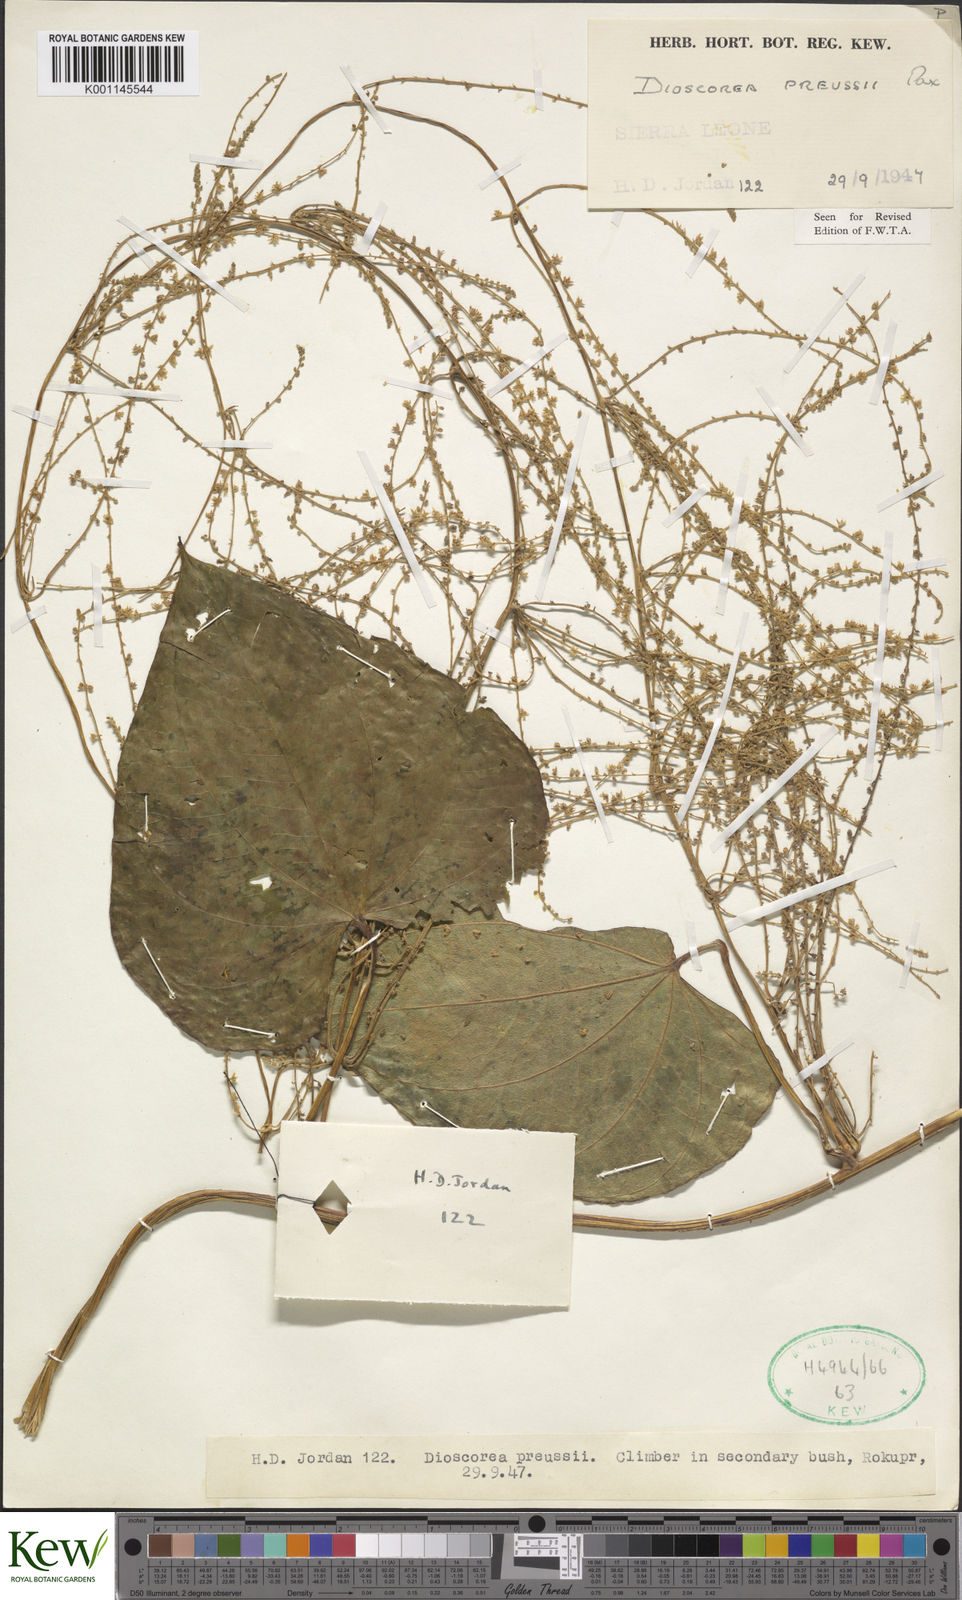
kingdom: Plantae
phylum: Tracheophyta
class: Liliopsida
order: Dioscoreales
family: Dioscoreaceae
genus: Dioscorea
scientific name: Dioscorea preussii
